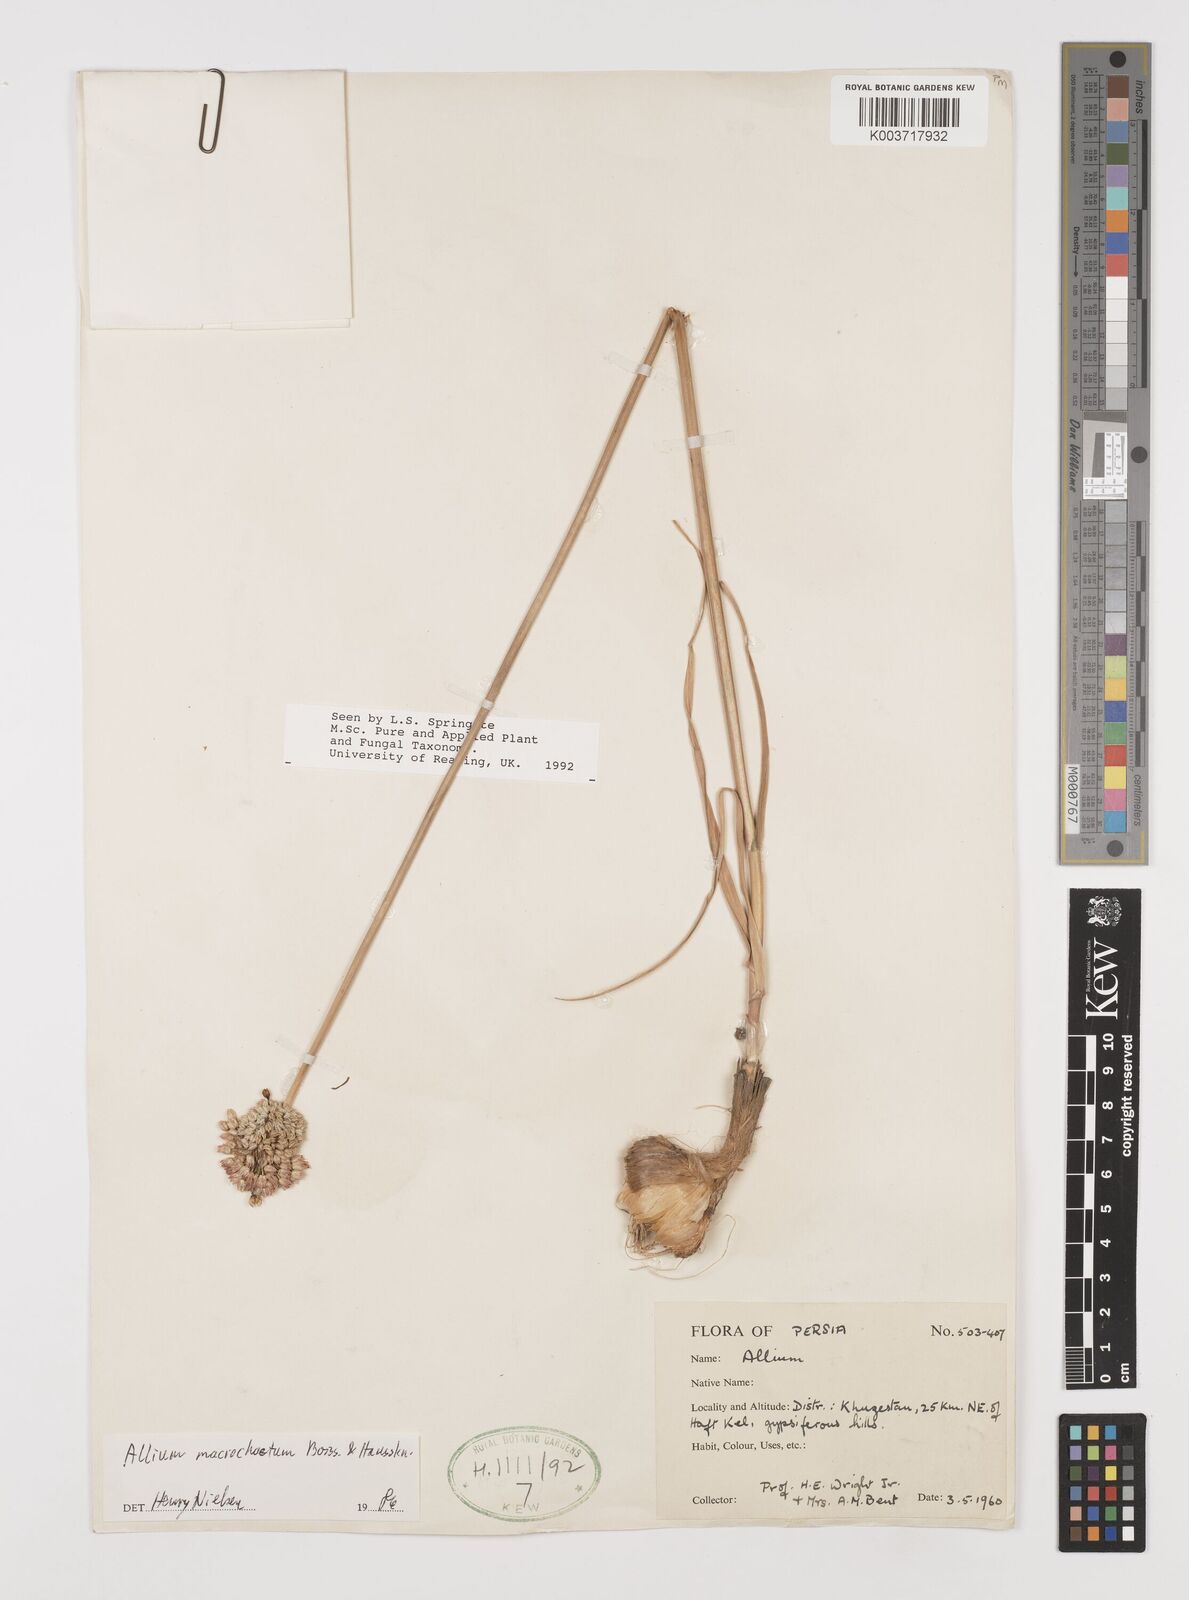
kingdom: Plantae
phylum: Tracheophyta
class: Liliopsida
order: Asparagales
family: Amaryllidaceae
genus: Allium
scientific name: Allium
